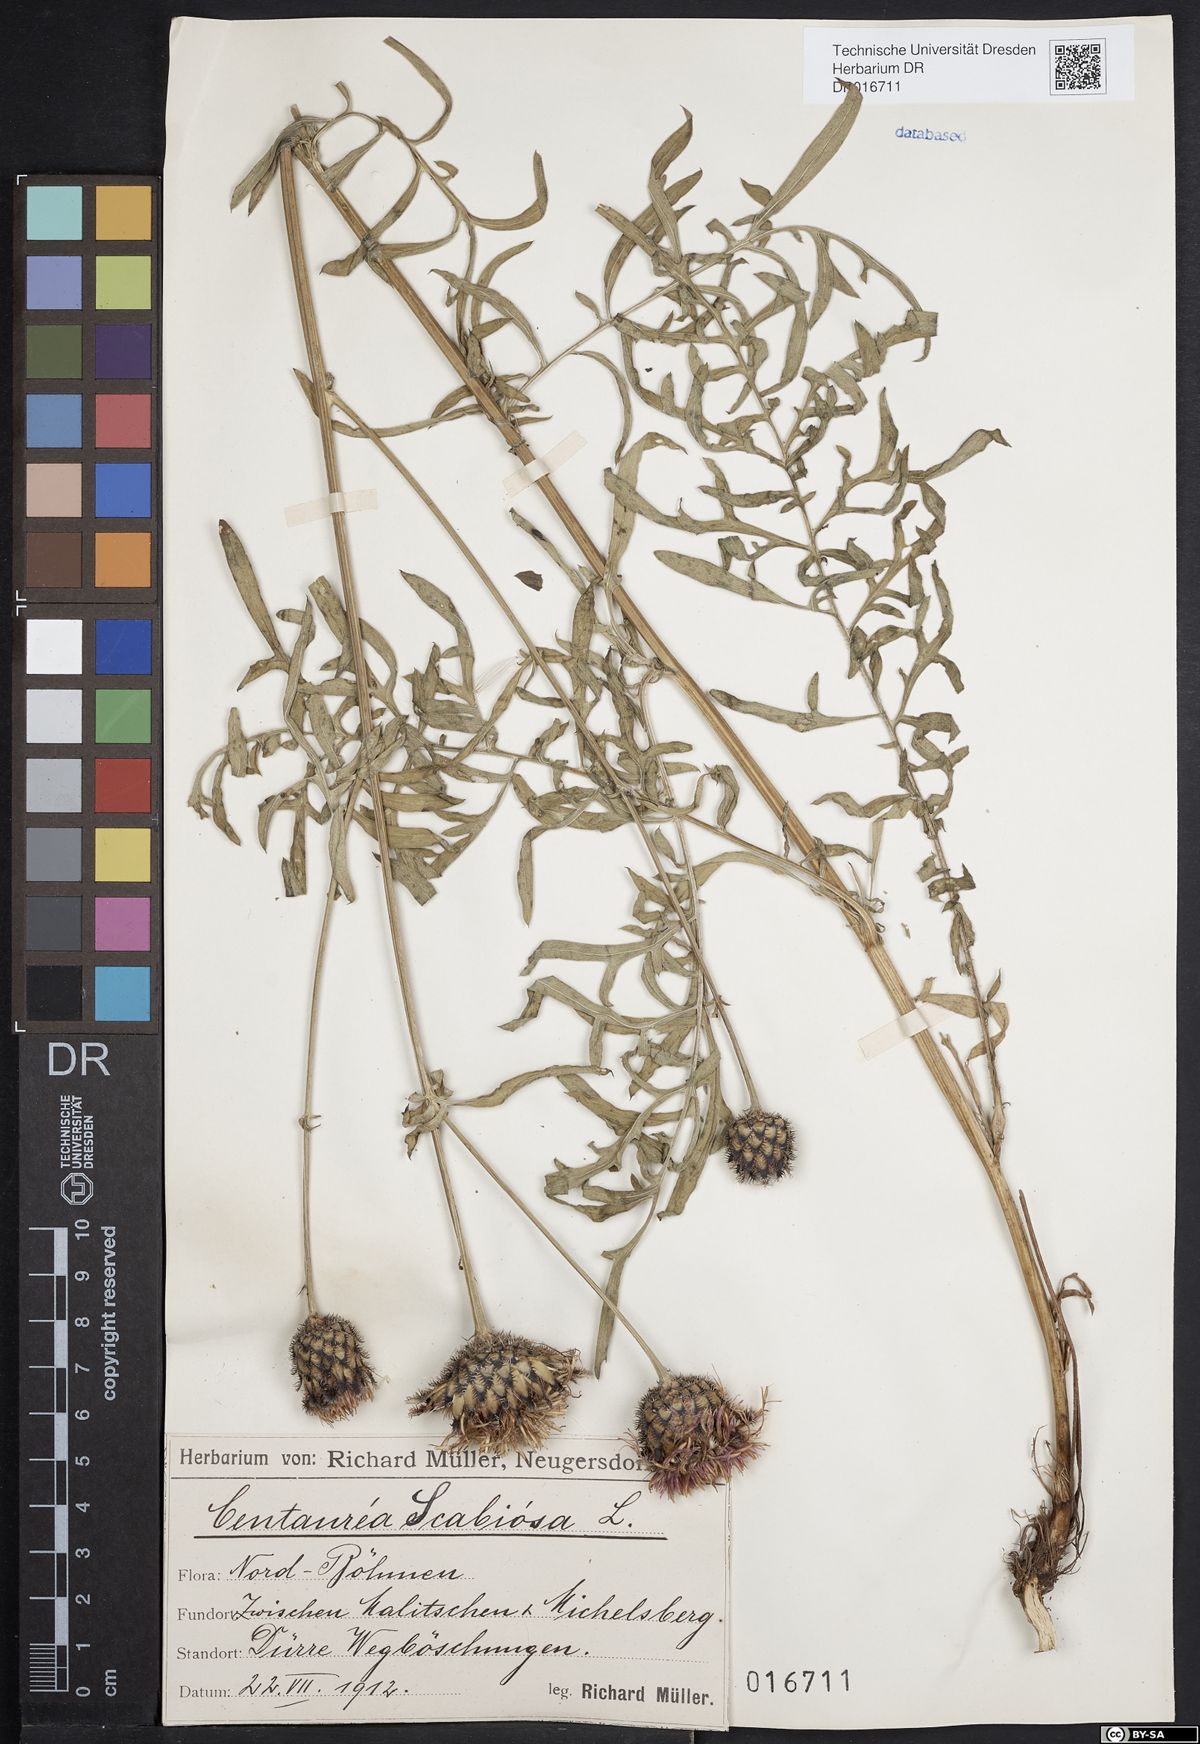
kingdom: Plantae
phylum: Tracheophyta
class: Magnoliopsida
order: Asterales
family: Asteraceae
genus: Centaurea
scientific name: Centaurea scabiosa
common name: Greater knapweed
